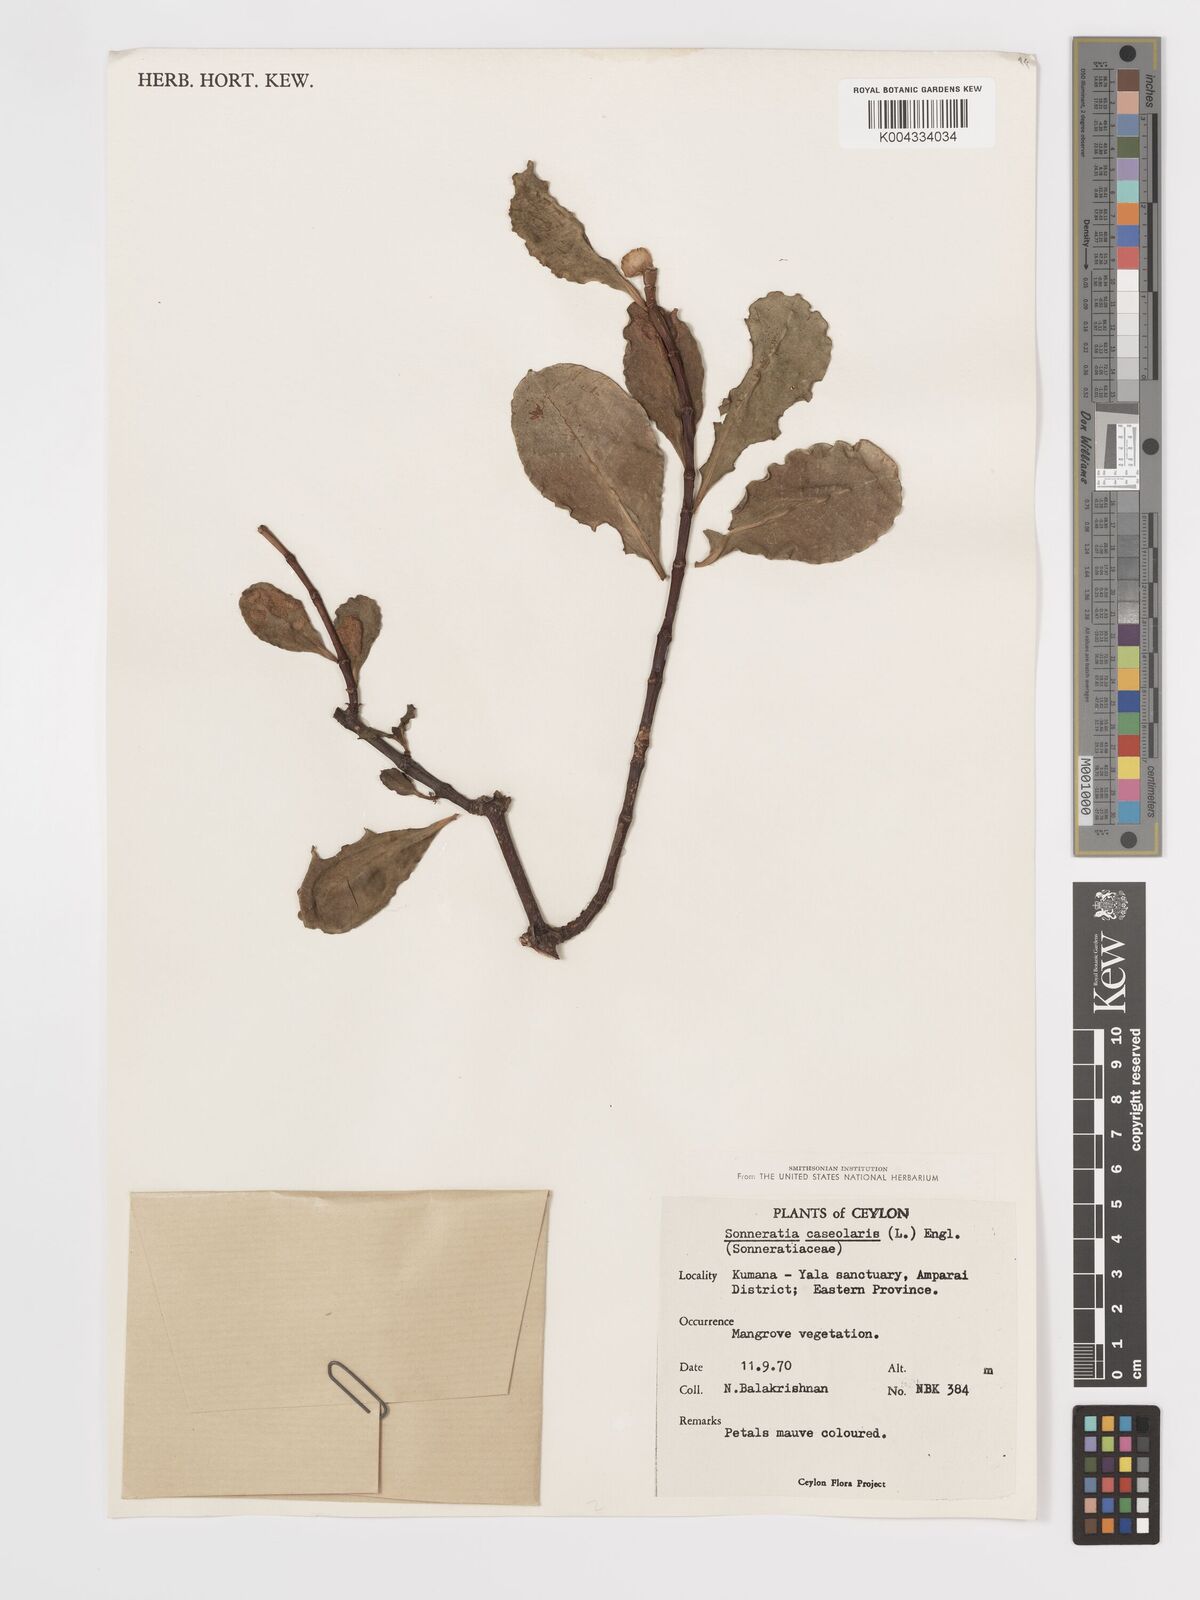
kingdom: Plantae
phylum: Tracheophyta
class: Magnoliopsida
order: Myrtales
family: Lythraceae
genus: Sonneratia
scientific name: Sonneratia caseolaris
